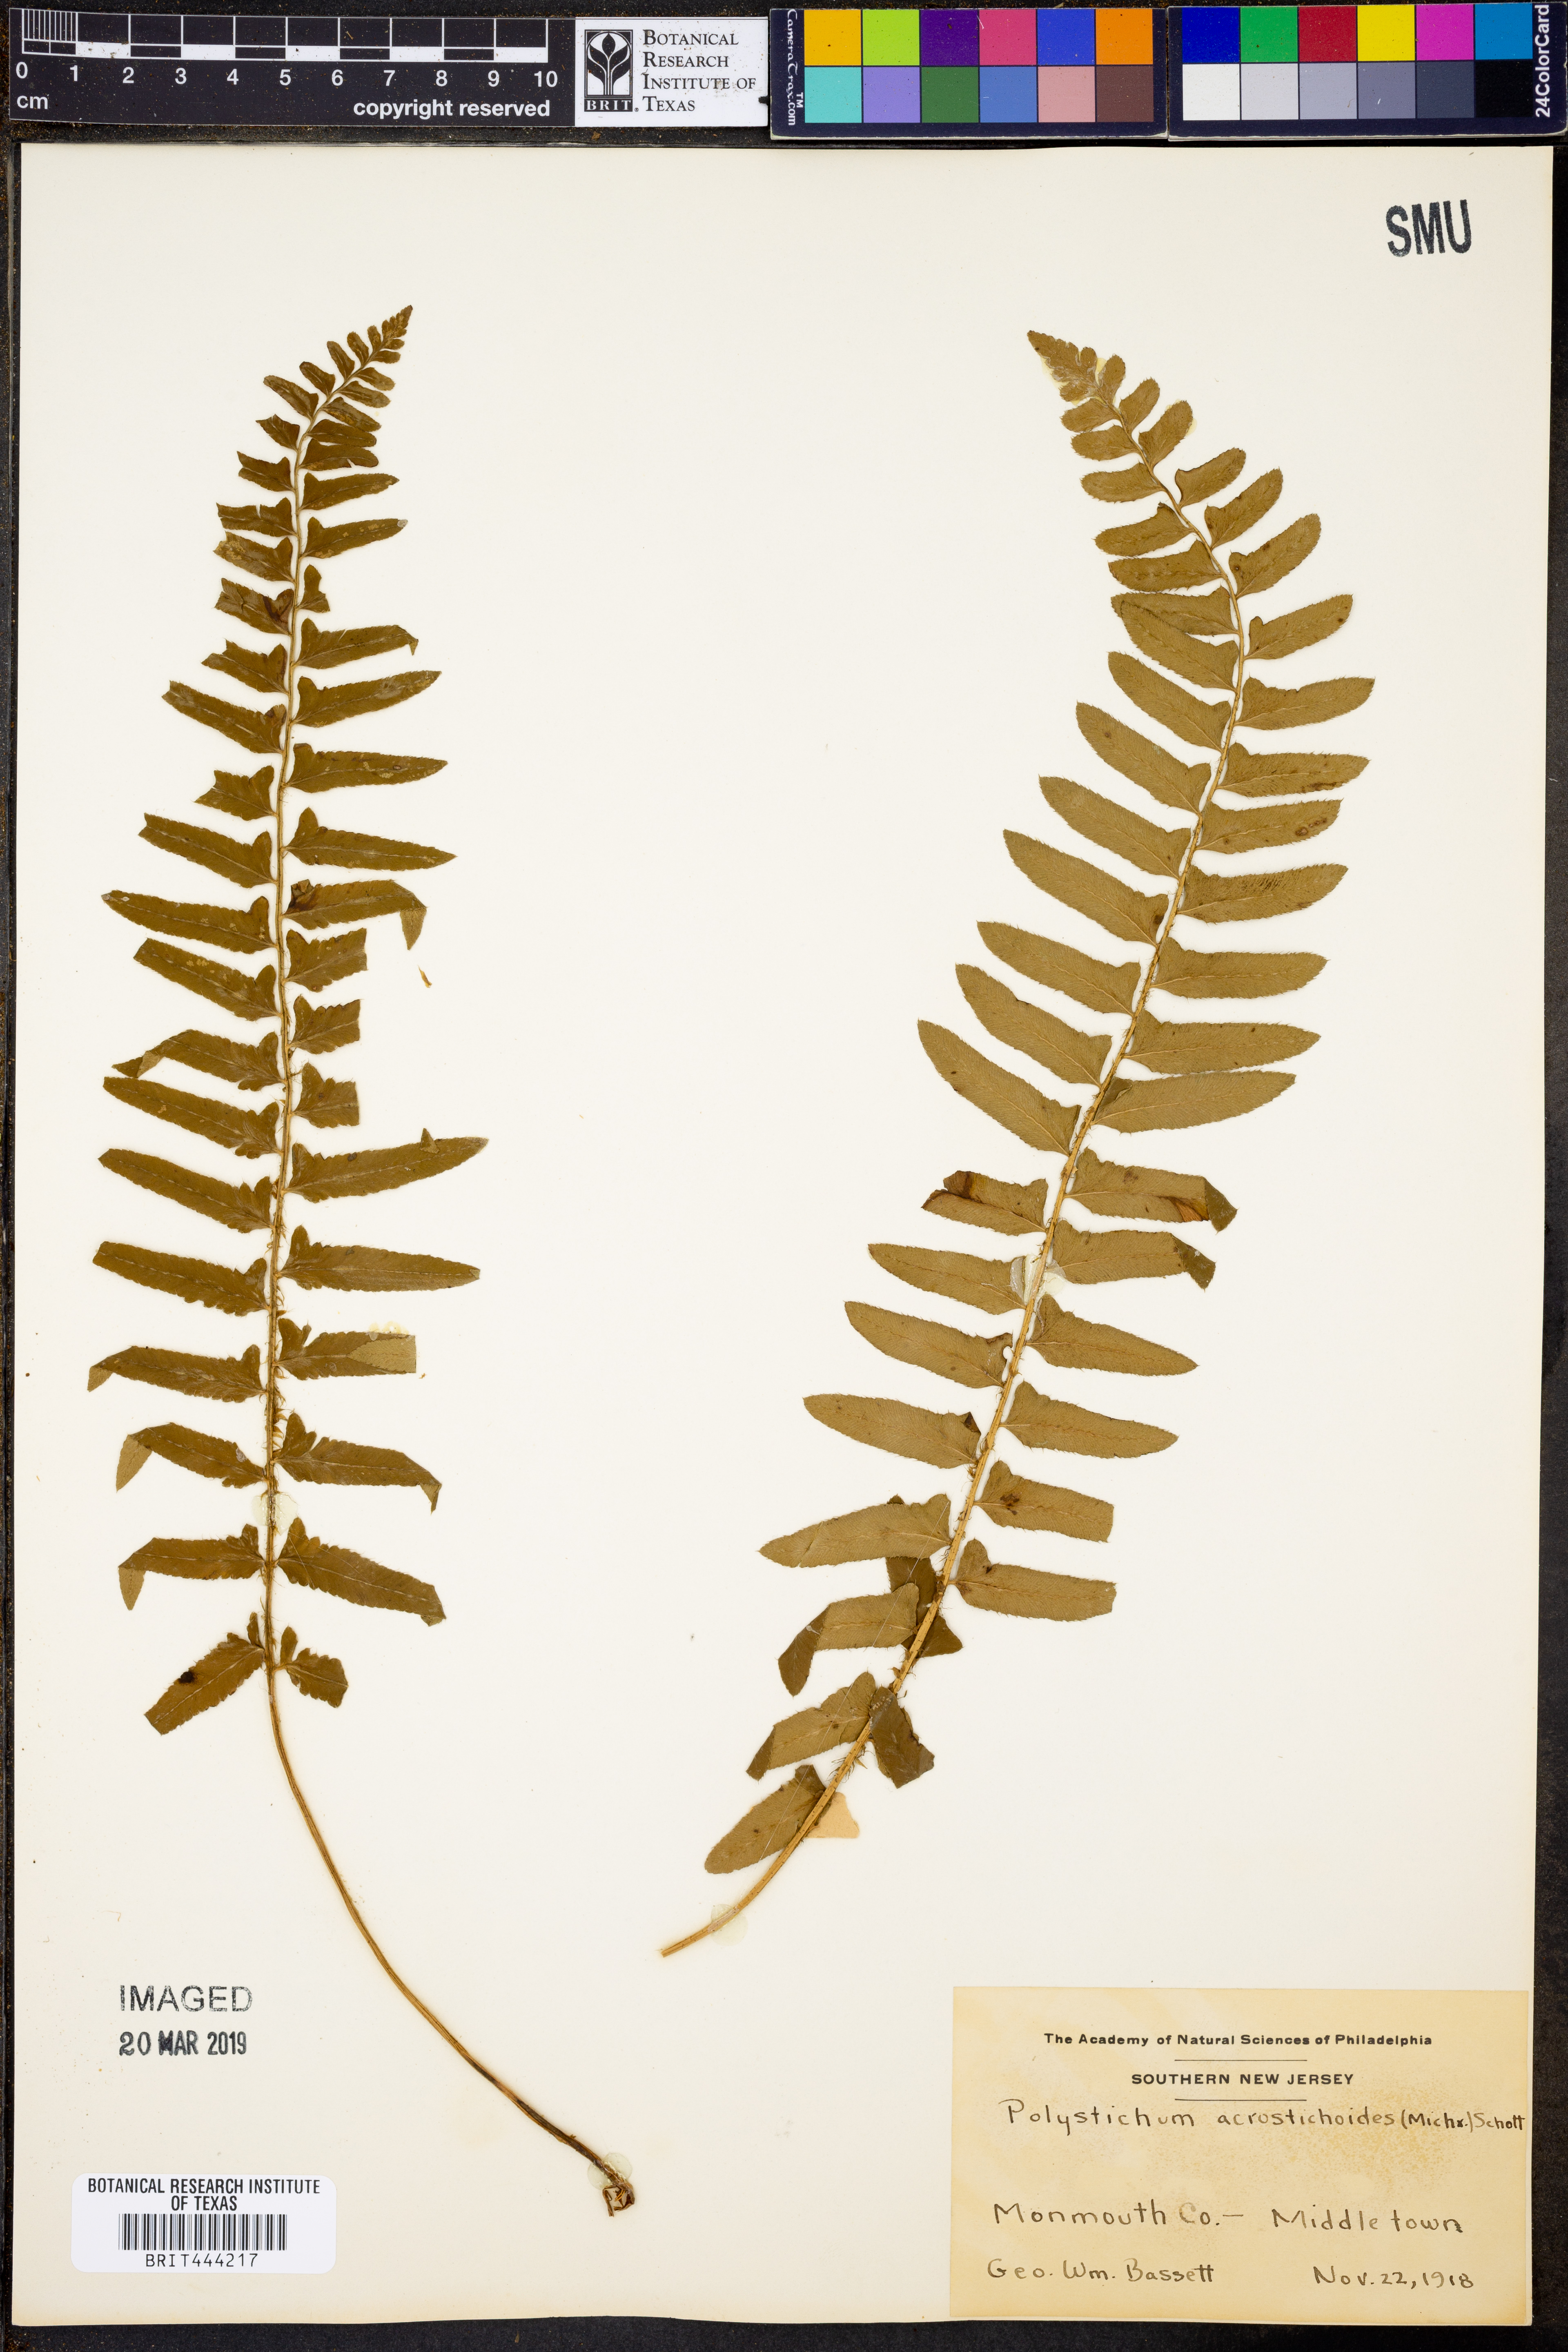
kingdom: Plantae
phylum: Tracheophyta
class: Polypodiopsida
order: Polypodiales
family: Dryopteridaceae
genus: Polystichum
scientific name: Polystichum acrostichoides
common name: Christmas fern
